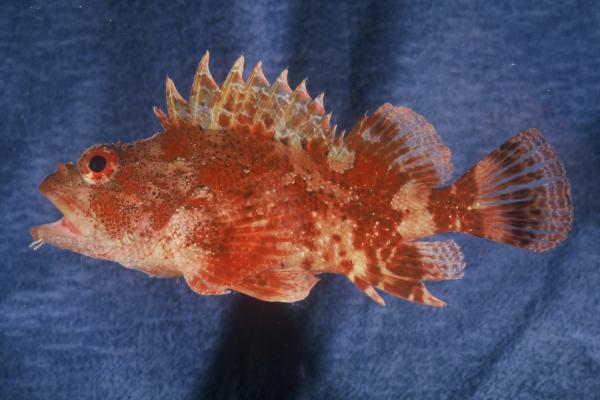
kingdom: Animalia
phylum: Chordata
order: Scorpaeniformes
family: Scorpaenidae
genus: Scorpaena
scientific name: Scorpaena maderensis
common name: Madeira rockfish
